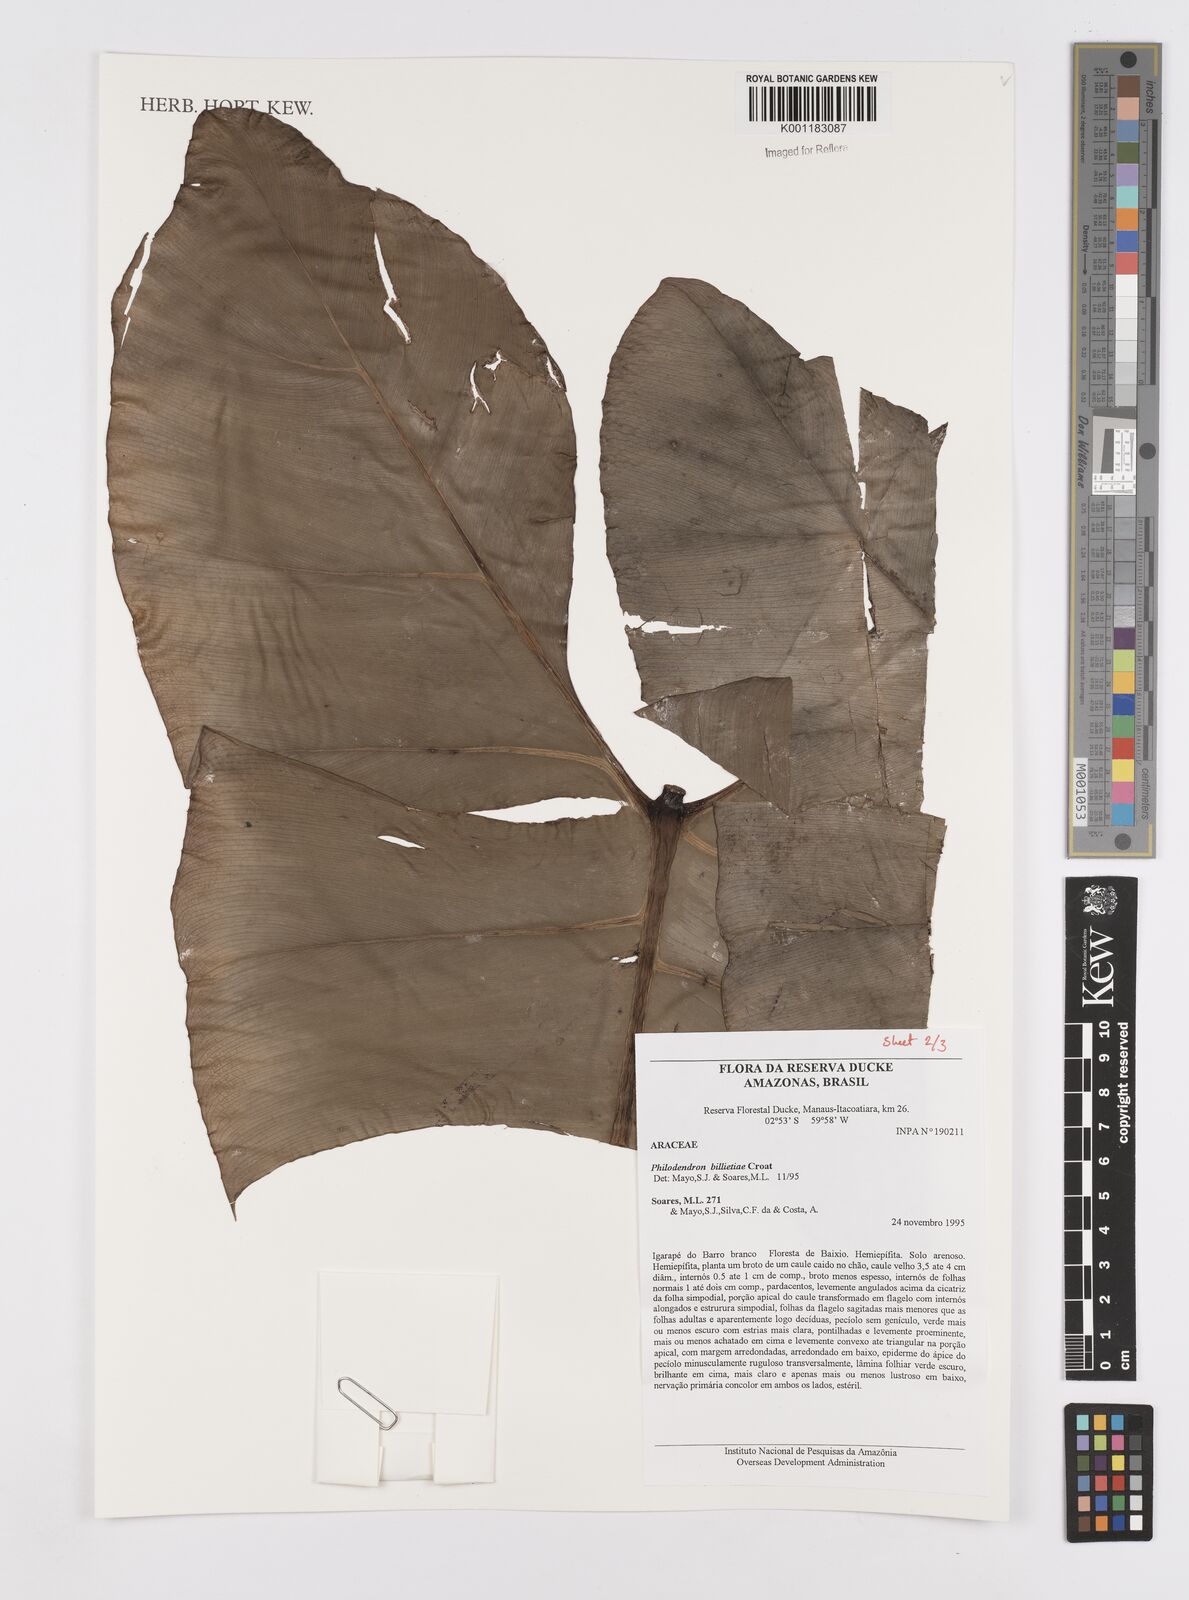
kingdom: Plantae
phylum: Tracheophyta
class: Liliopsida
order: Alismatales
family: Araceae
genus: Philodendron
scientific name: Philodendron billietiae
